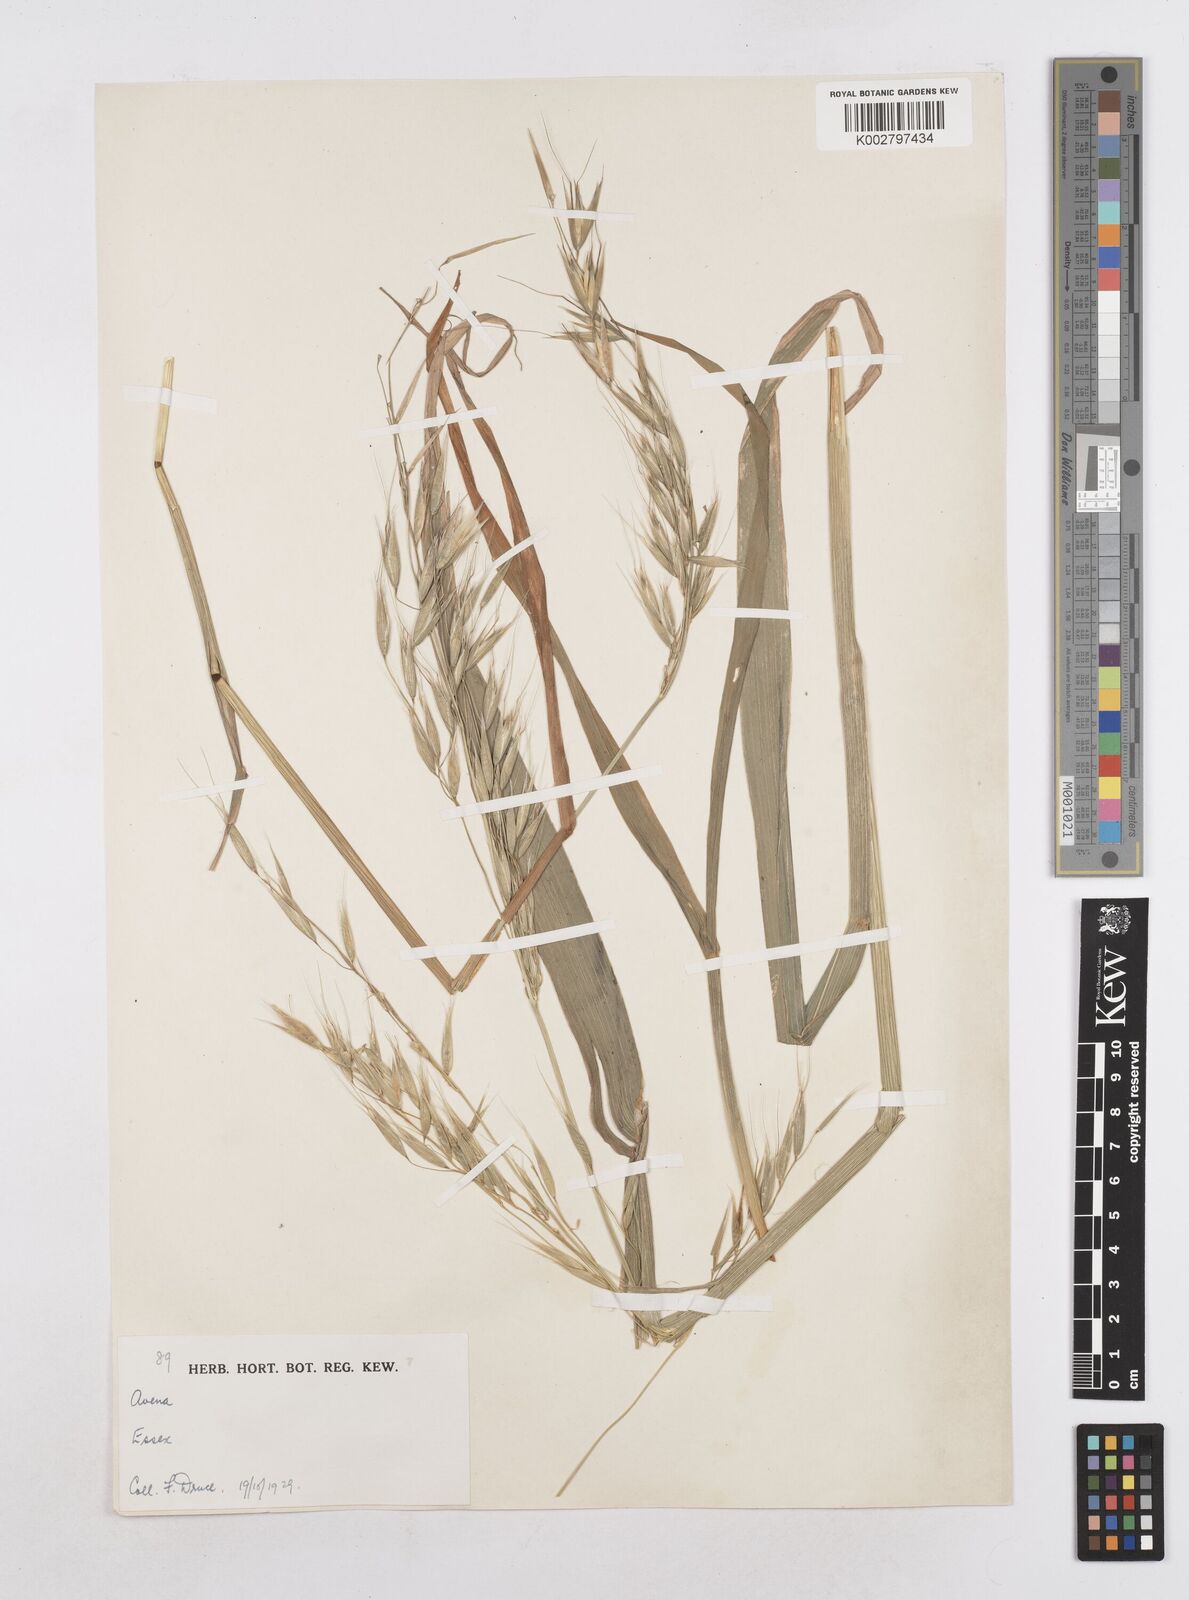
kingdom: Plantae
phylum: Tracheophyta
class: Liliopsida
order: Poales
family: Poaceae
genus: Avena
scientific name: Avena fatua
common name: Wild oat
